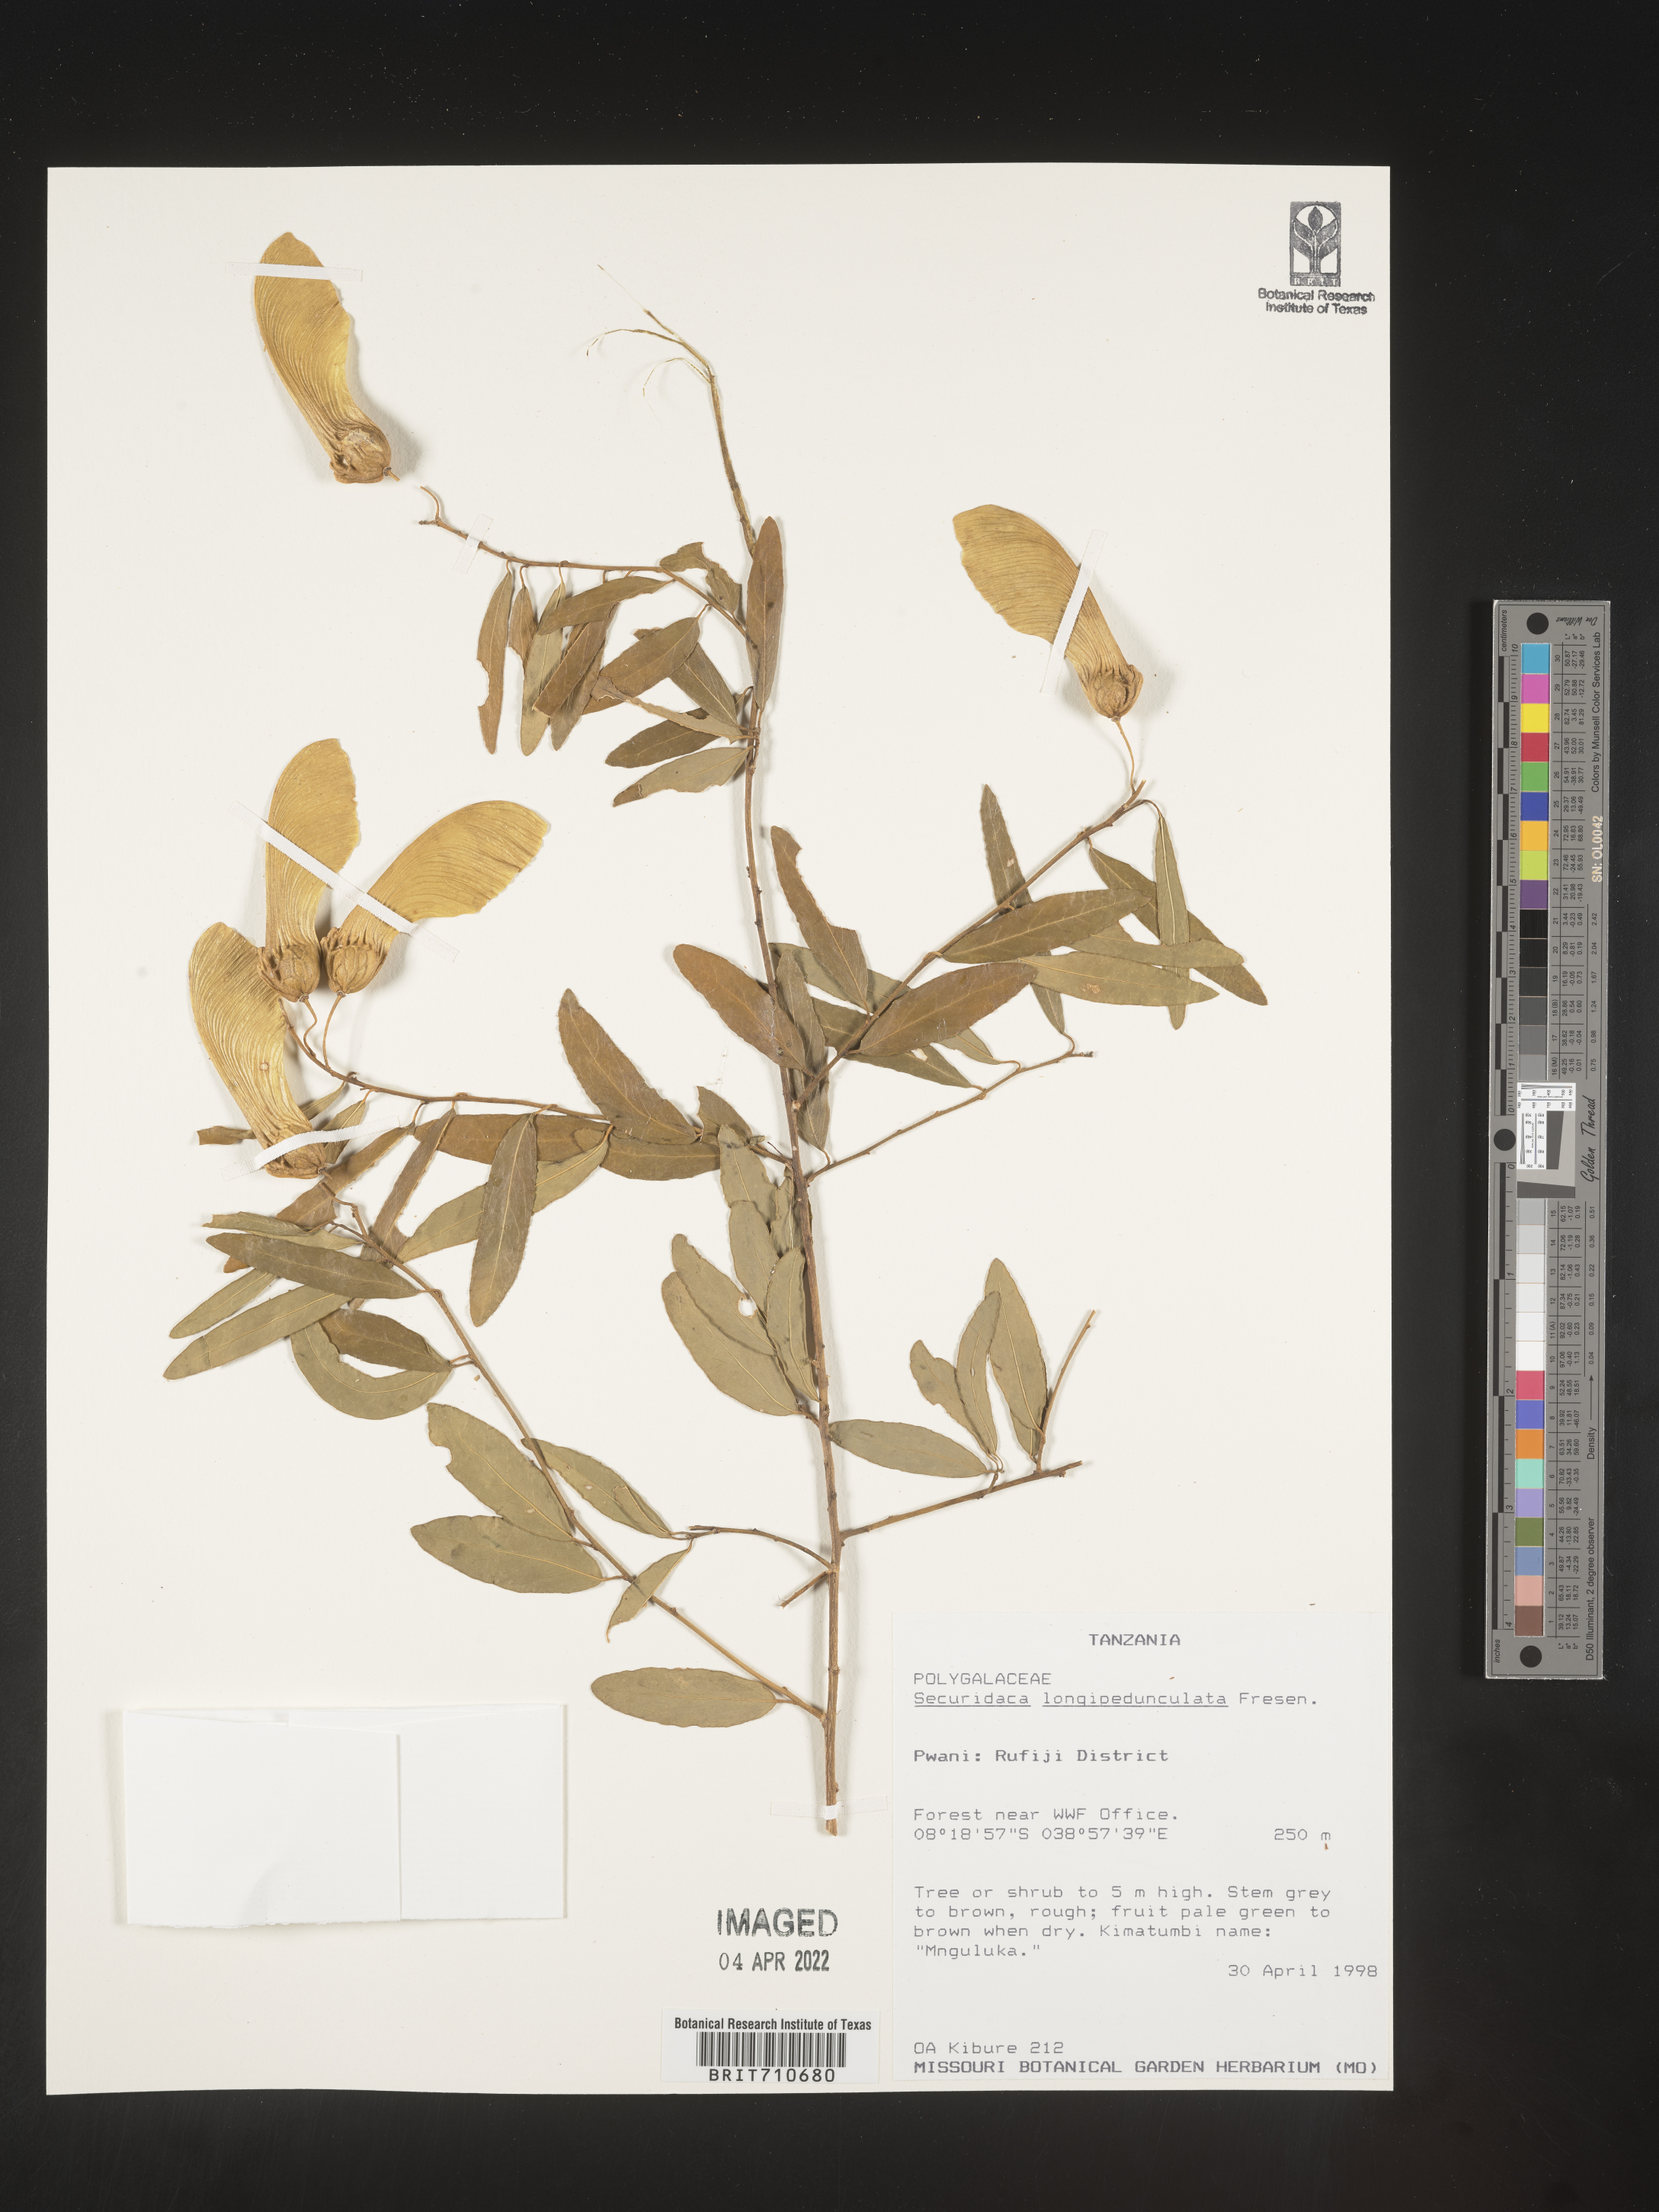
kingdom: Plantae
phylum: Tracheophyta
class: Magnoliopsida
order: Fabales
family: Polygalaceae
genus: Securidaca
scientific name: Securidaca
